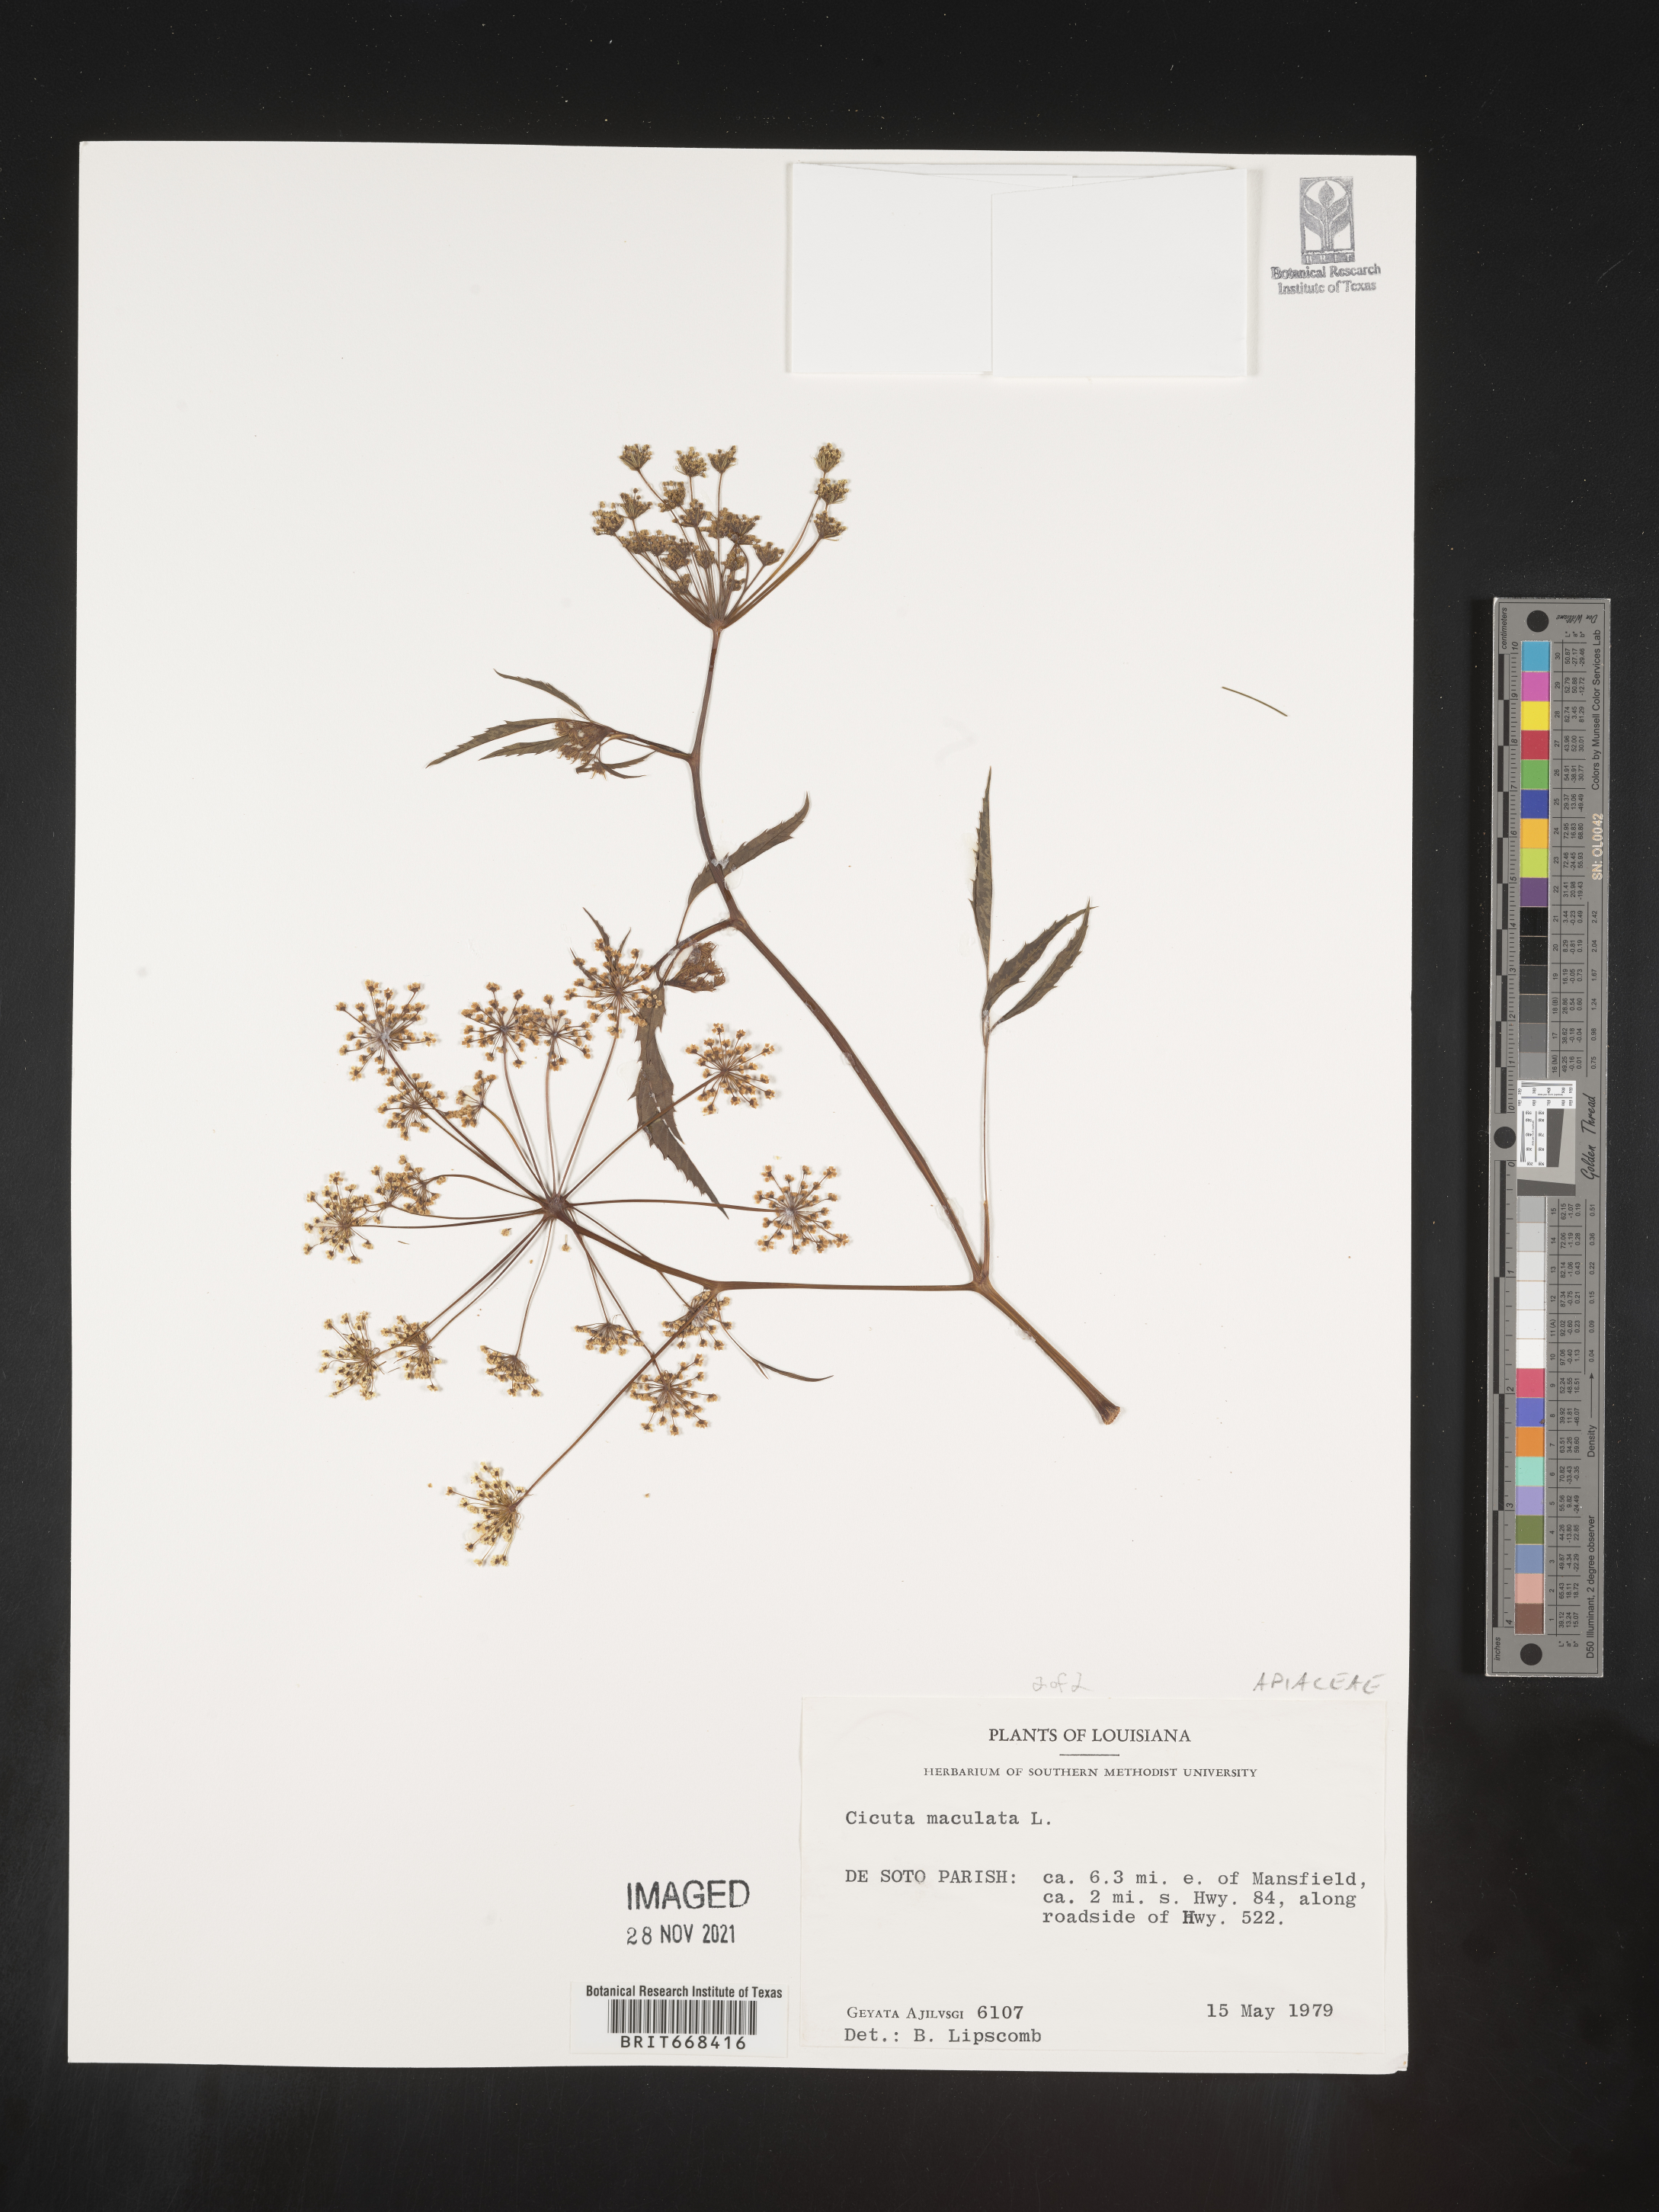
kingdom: Plantae
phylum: Tracheophyta
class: Magnoliopsida
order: Apiales
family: Apiaceae
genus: Cicuta
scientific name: Cicuta maculata
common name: Spotted cowbane
